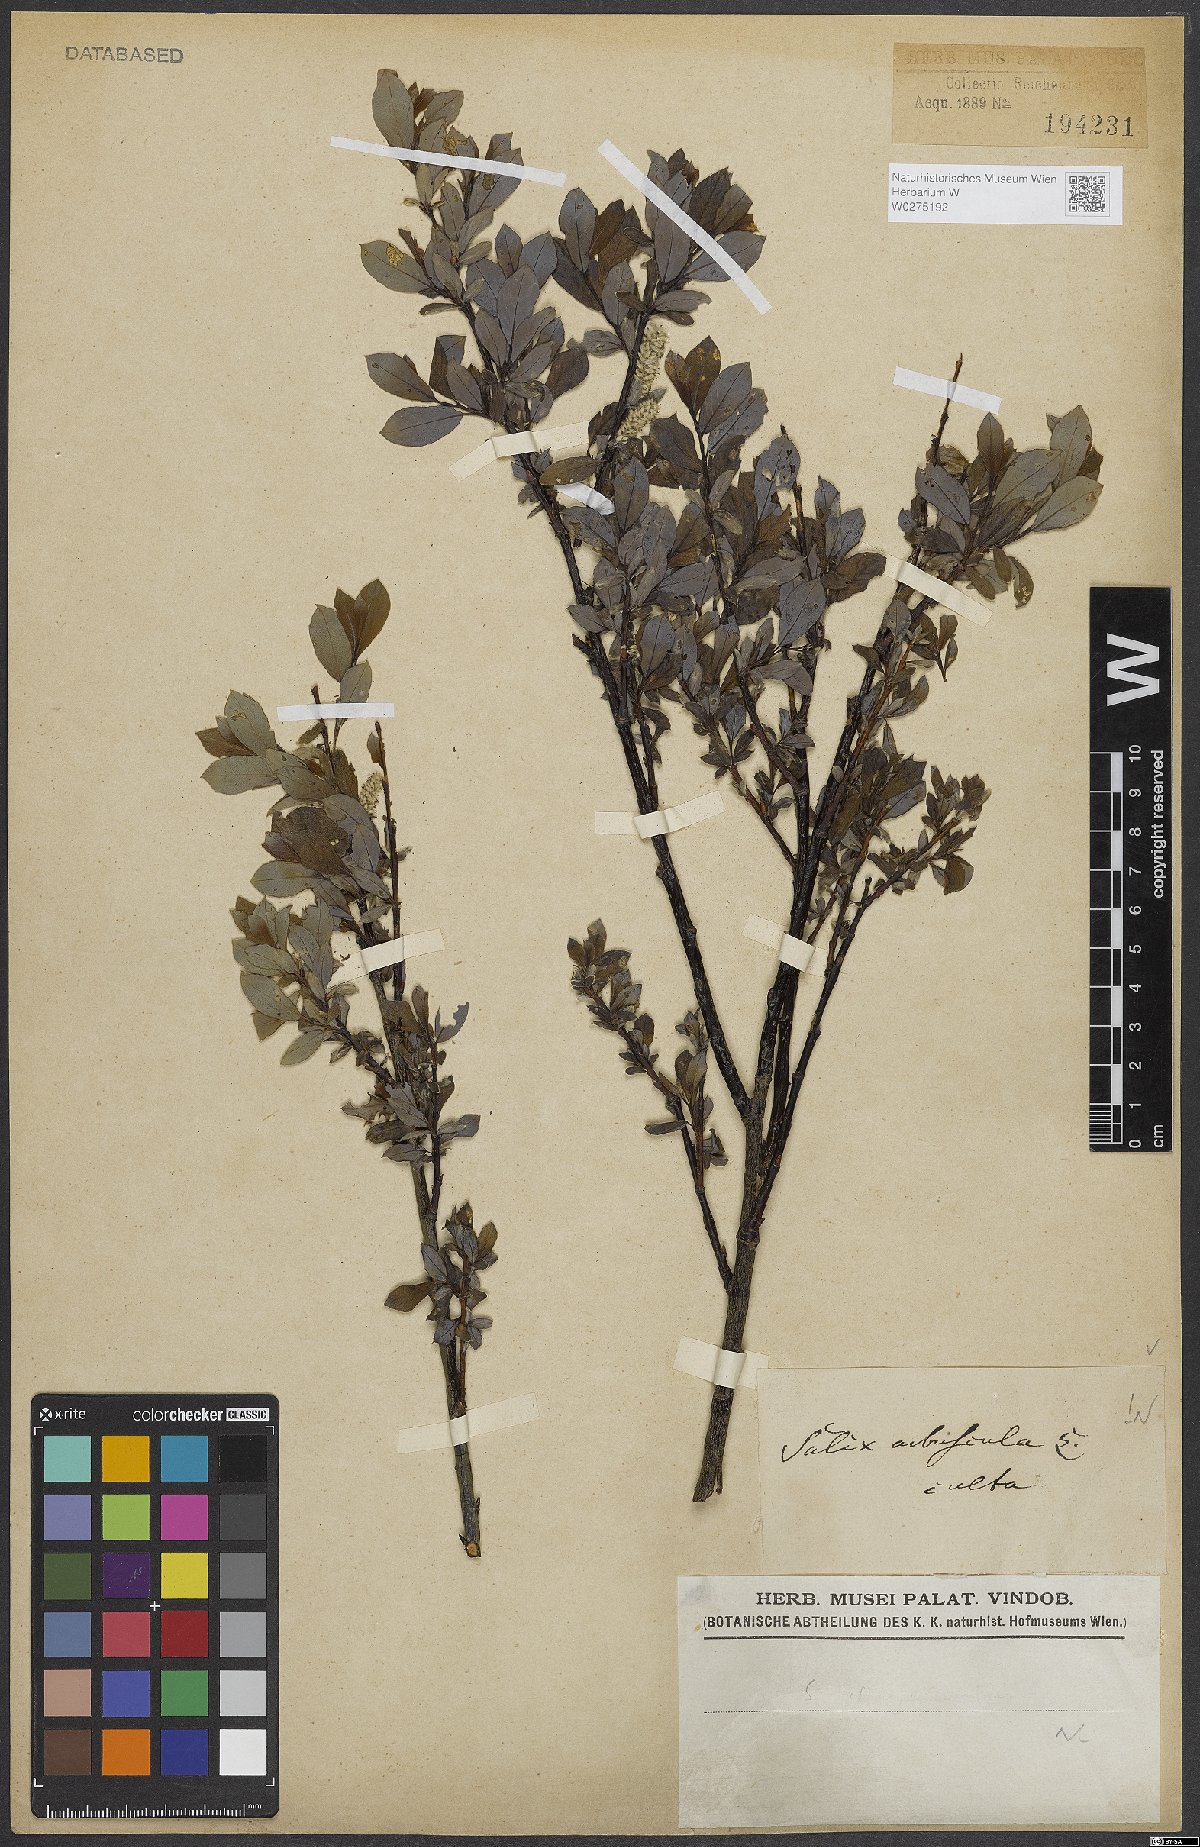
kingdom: Plantae
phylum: Tracheophyta
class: Magnoliopsida
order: Malpighiales
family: Salicaceae
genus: Salix
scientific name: Salix arbuscula
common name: Mountain willow
